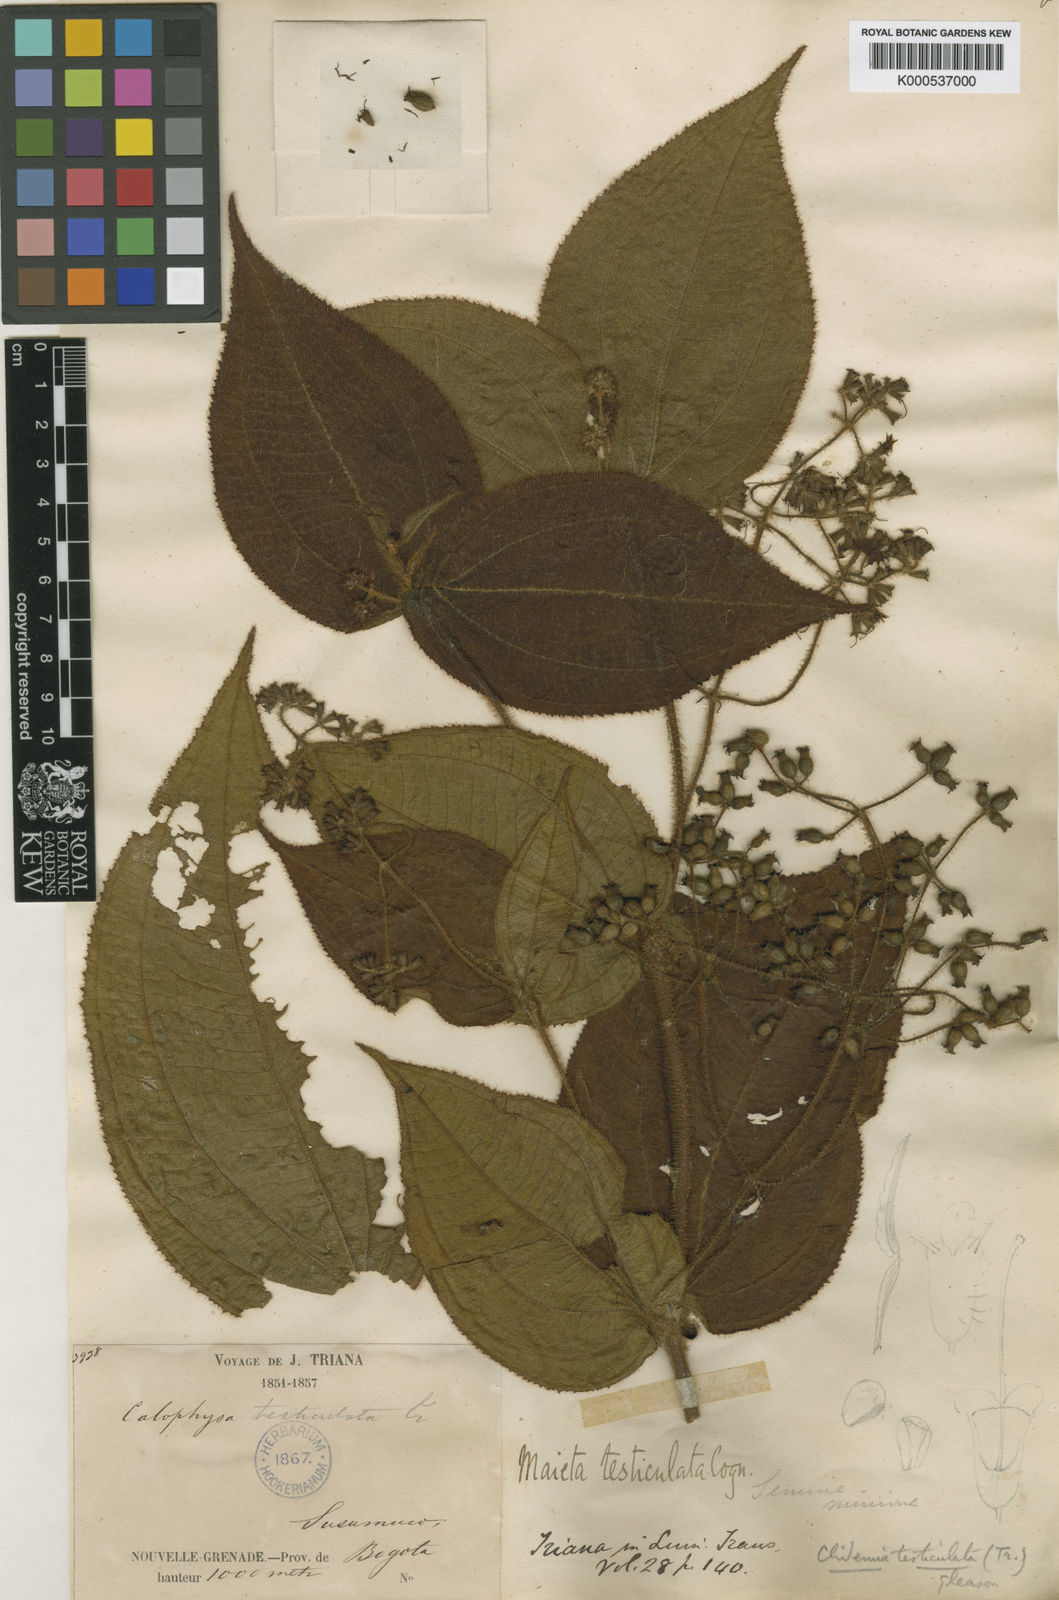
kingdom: Plantae
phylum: Tracheophyta
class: Magnoliopsida
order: Myrtales
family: Melastomataceae
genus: Miconia
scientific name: Miconia
